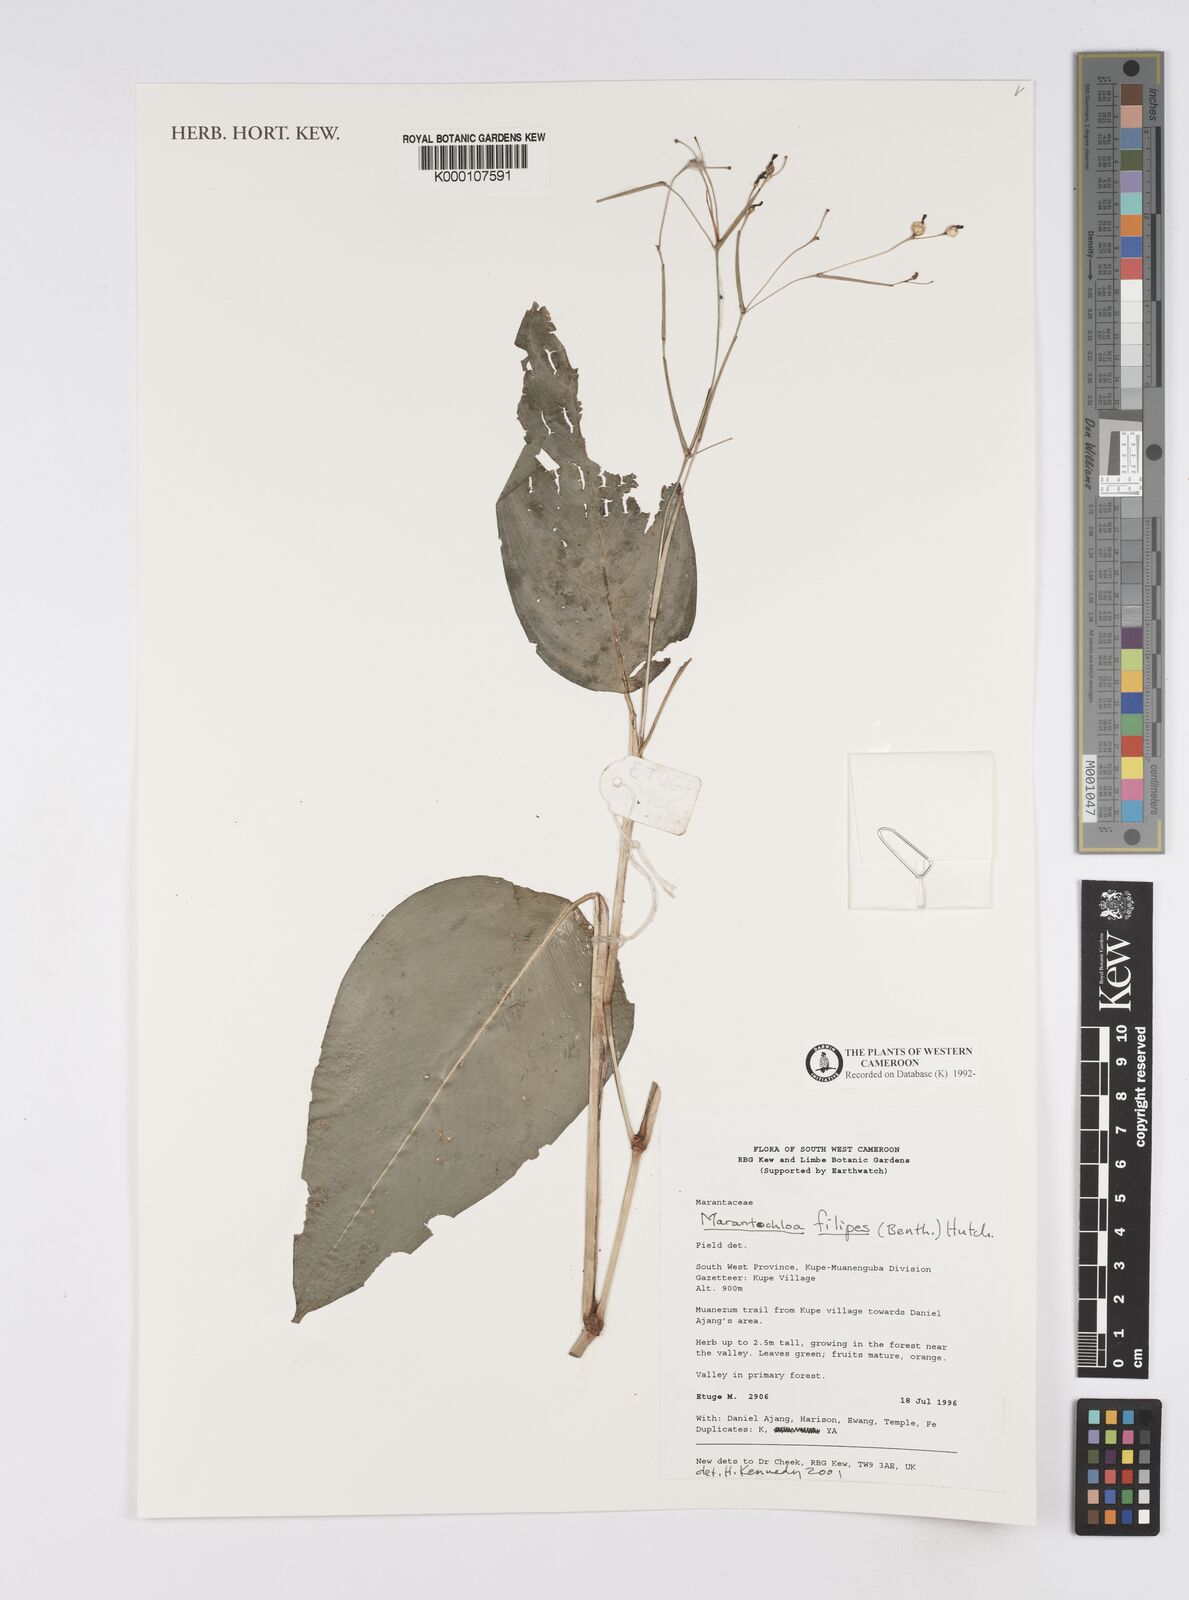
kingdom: Plantae
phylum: Tracheophyta
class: Liliopsida
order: Zingiberales
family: Marantaceae
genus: Marantochloa
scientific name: Marantochloa filipes
